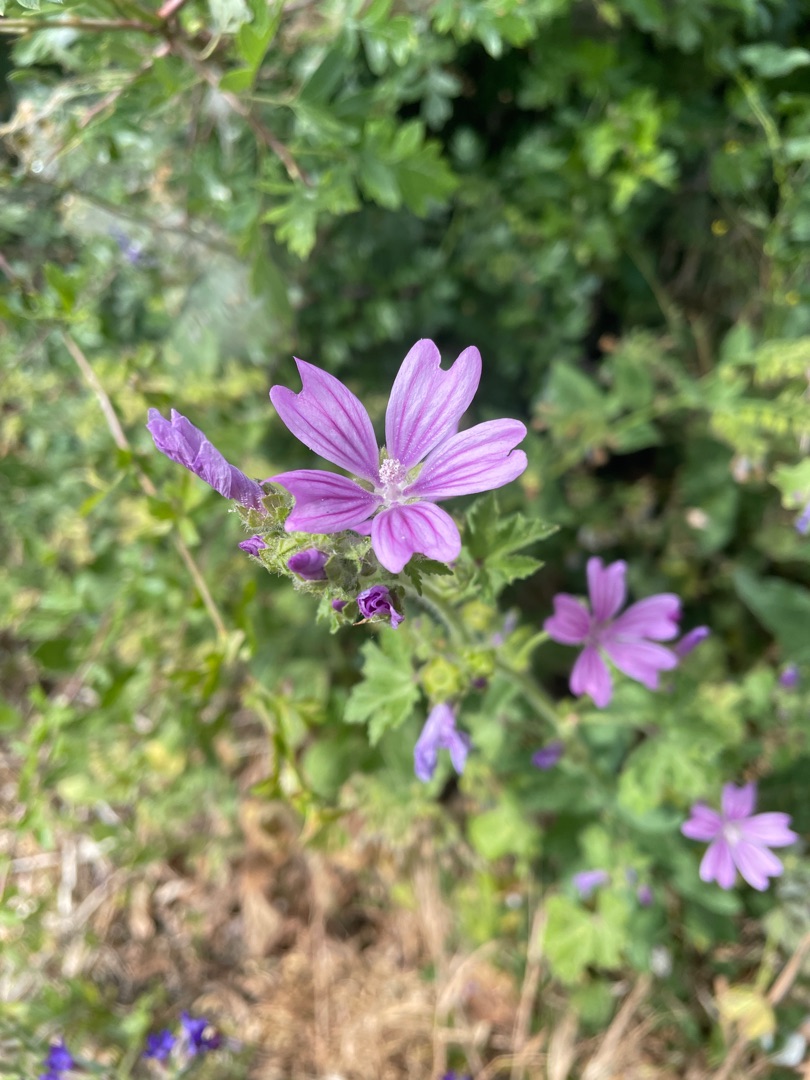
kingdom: Plantae
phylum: Tracheophyta
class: Magnoliopsida
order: Malvales
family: Malvaceae
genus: Malva
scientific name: Malva sylvestris
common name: Almindelig katost
